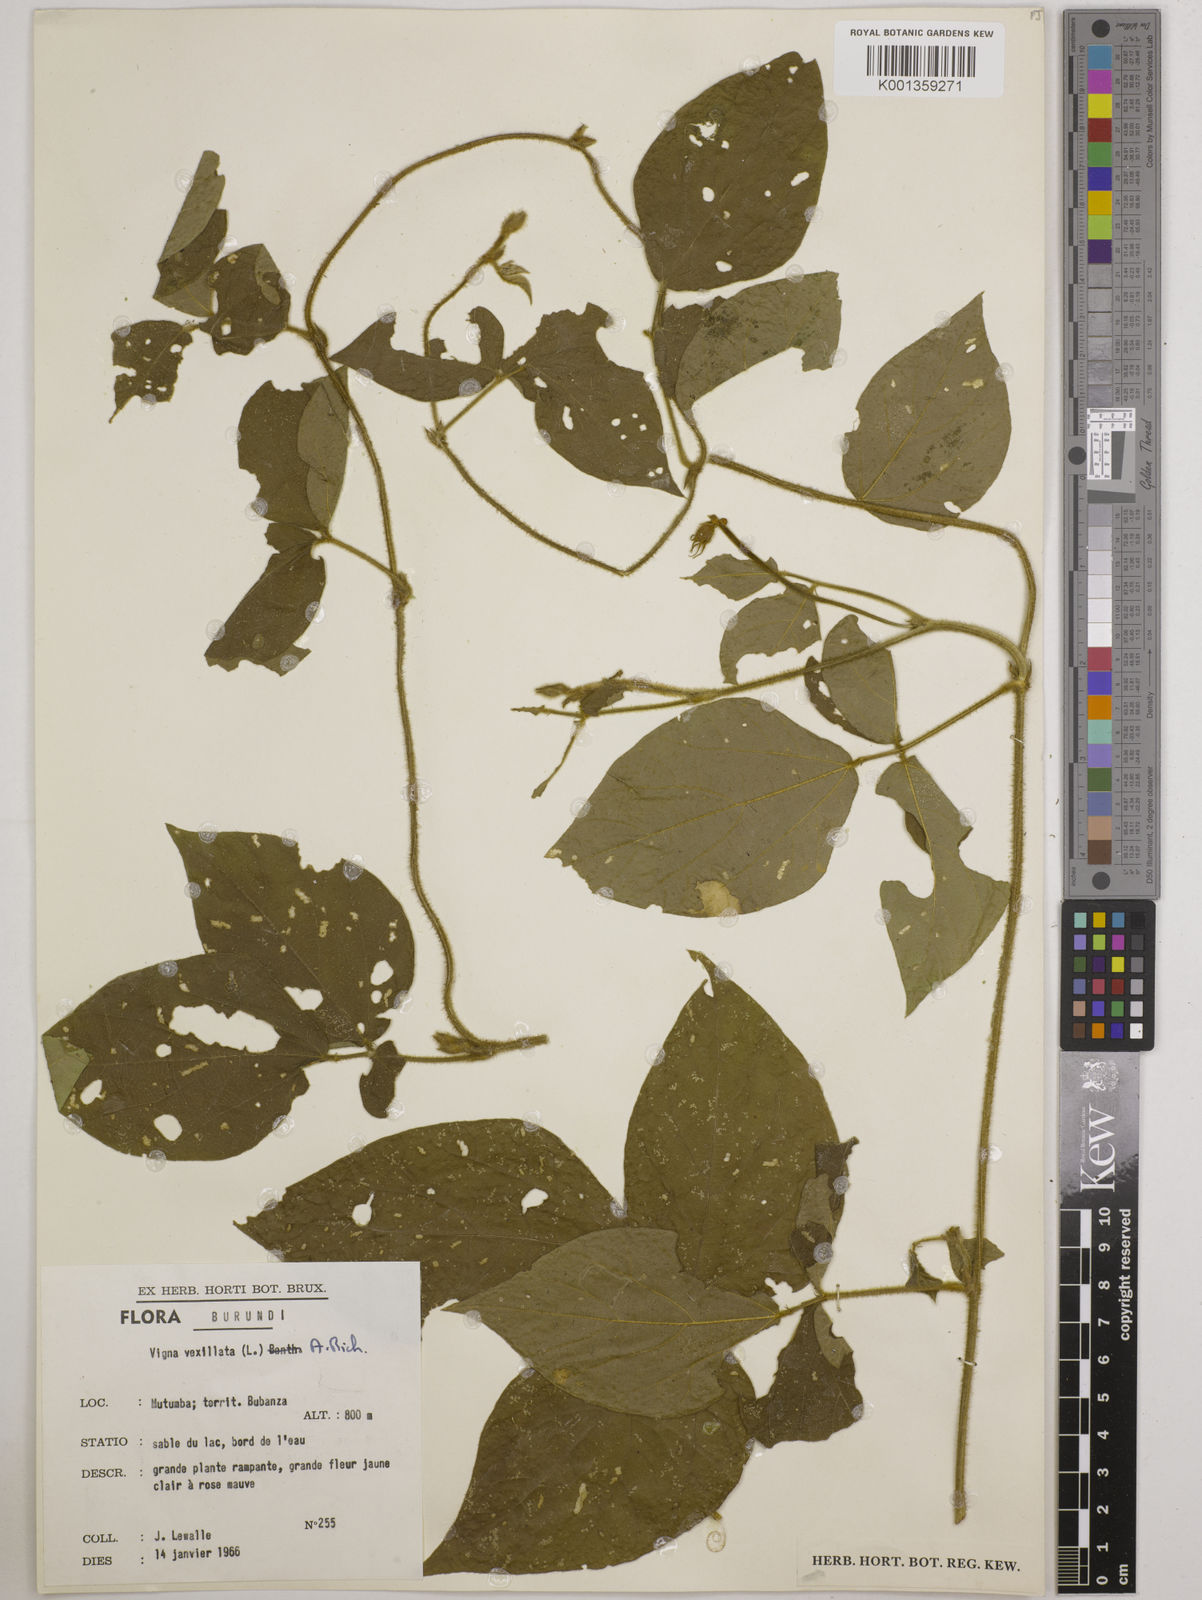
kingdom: Plantae
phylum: Tracheophyta
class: Magnoliopsida
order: Fabales
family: Fabaceae
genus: Vigna
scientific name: Vigna vexillata
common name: Zombi pea
